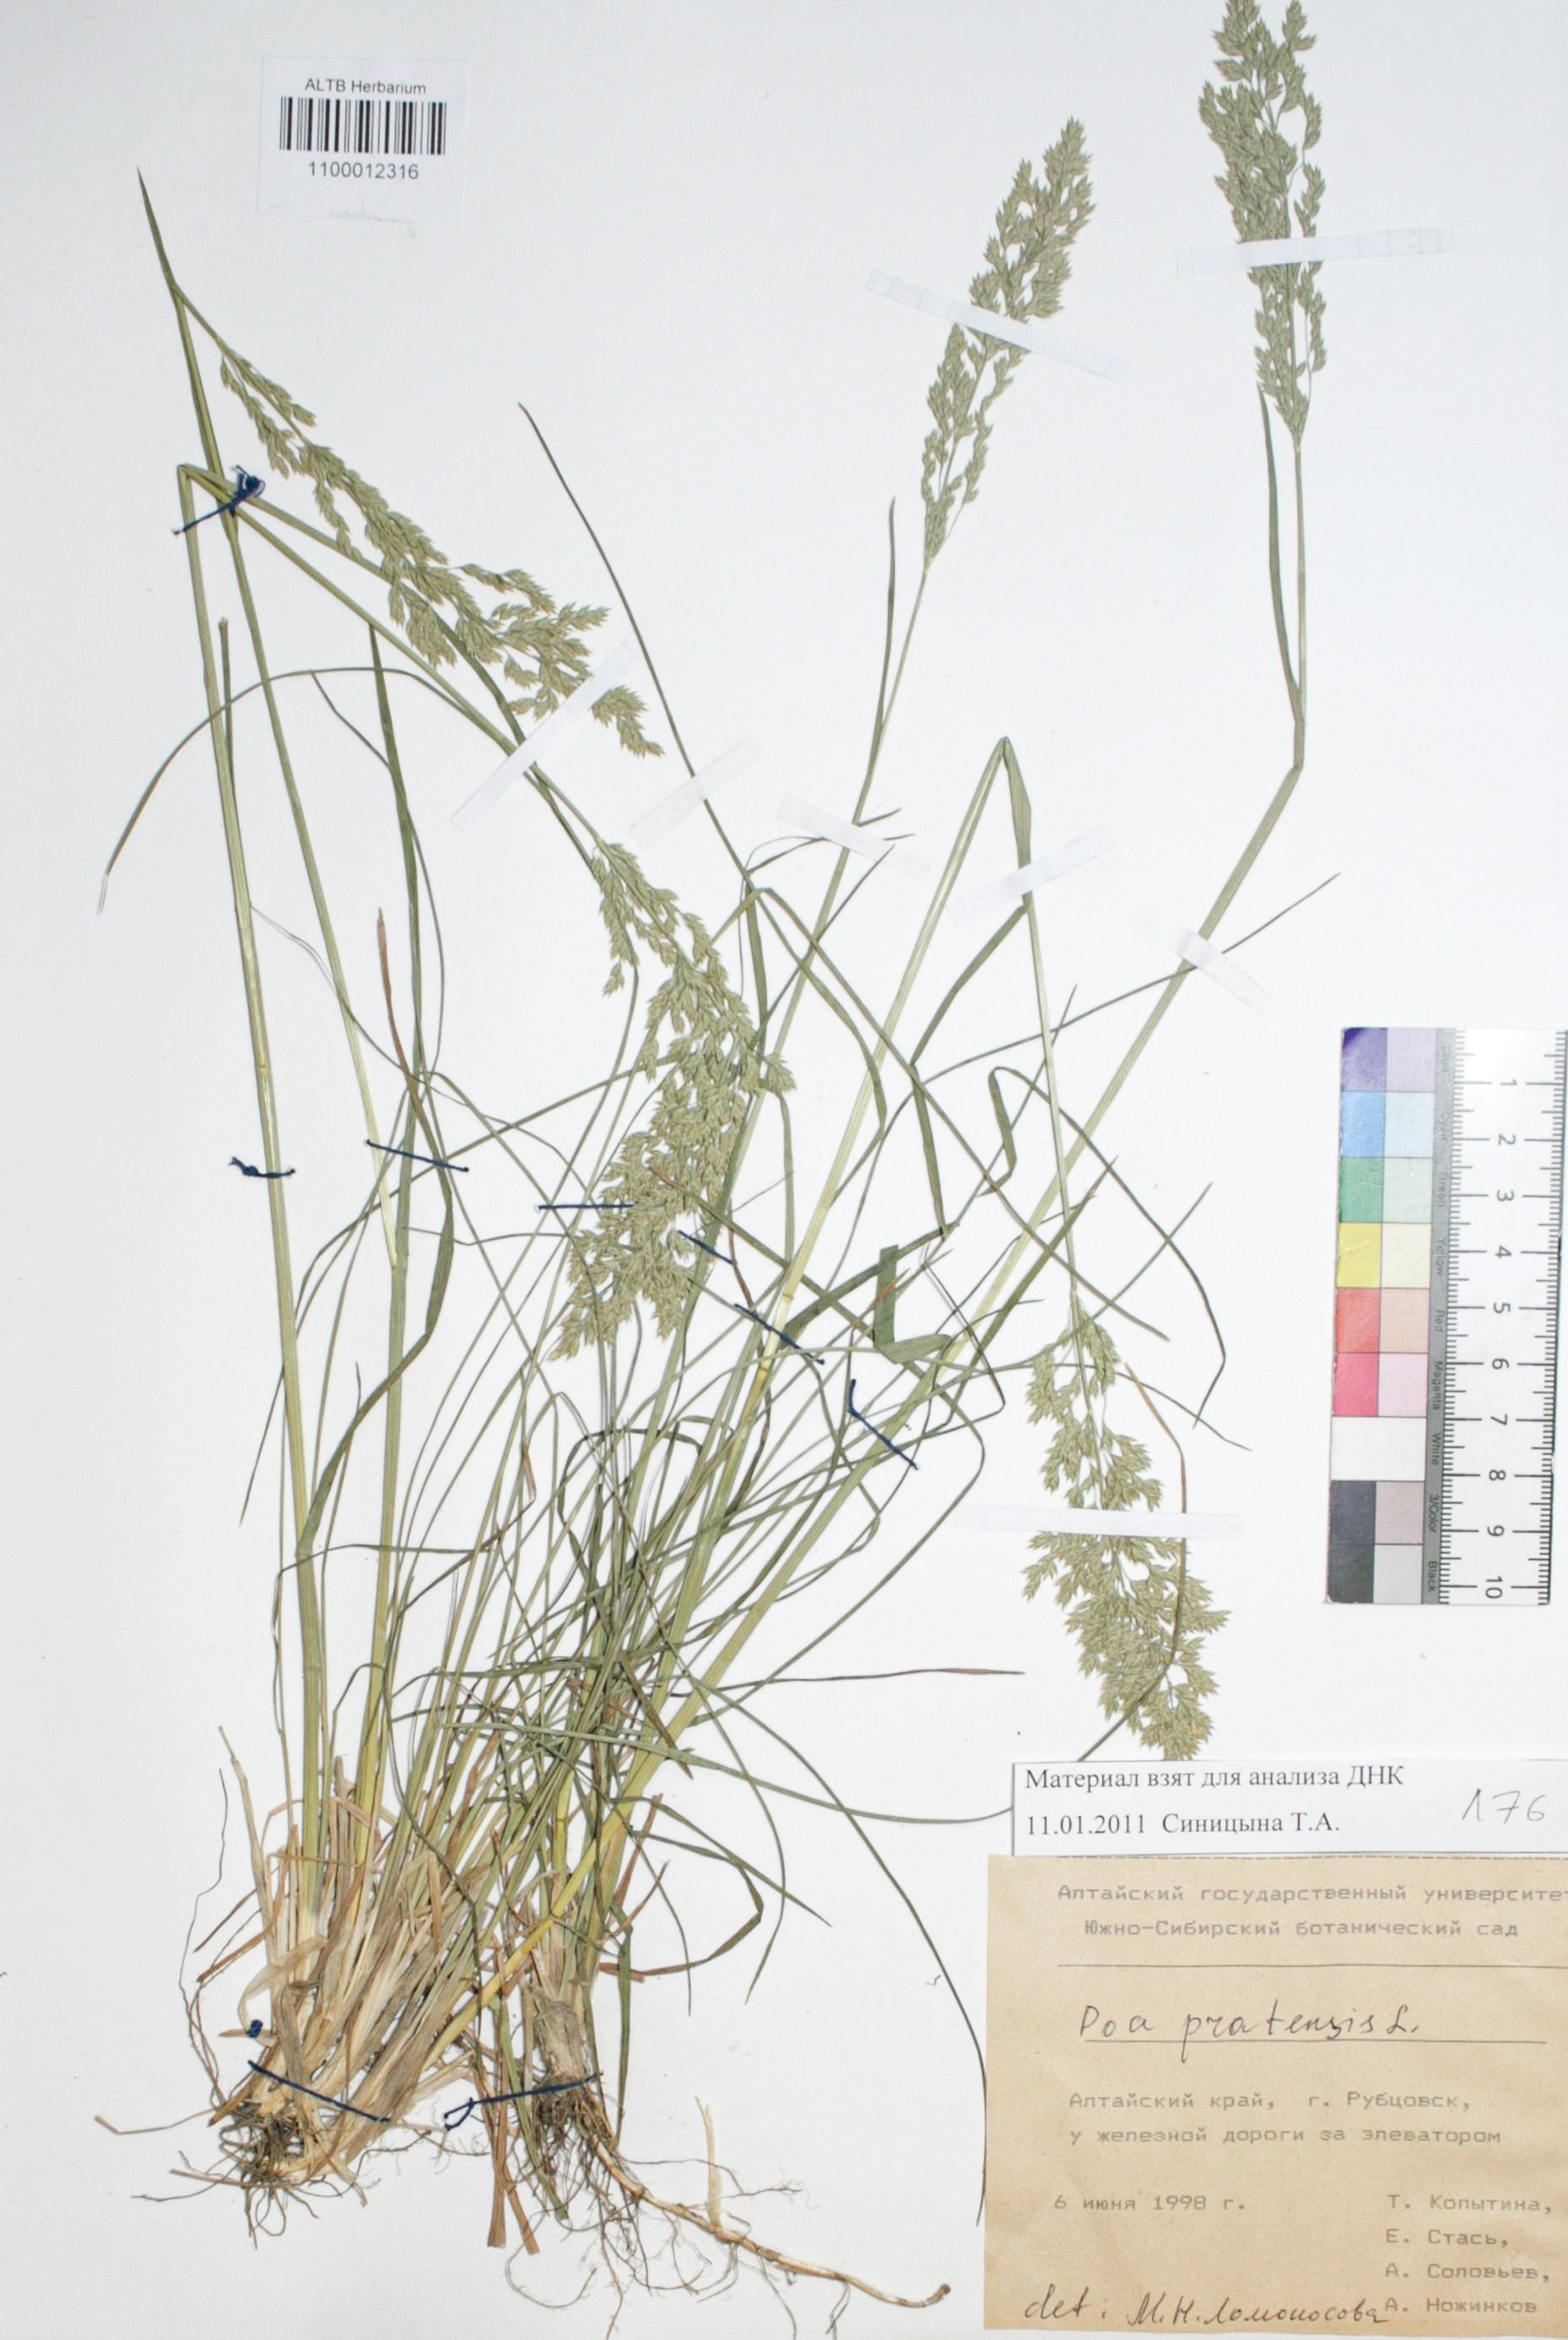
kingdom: Plantae
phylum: Tracheophyta
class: Liliopsida
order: Poales
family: Poaceae
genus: Poa
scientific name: Poa pratensis
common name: Kentucky bluegrass
